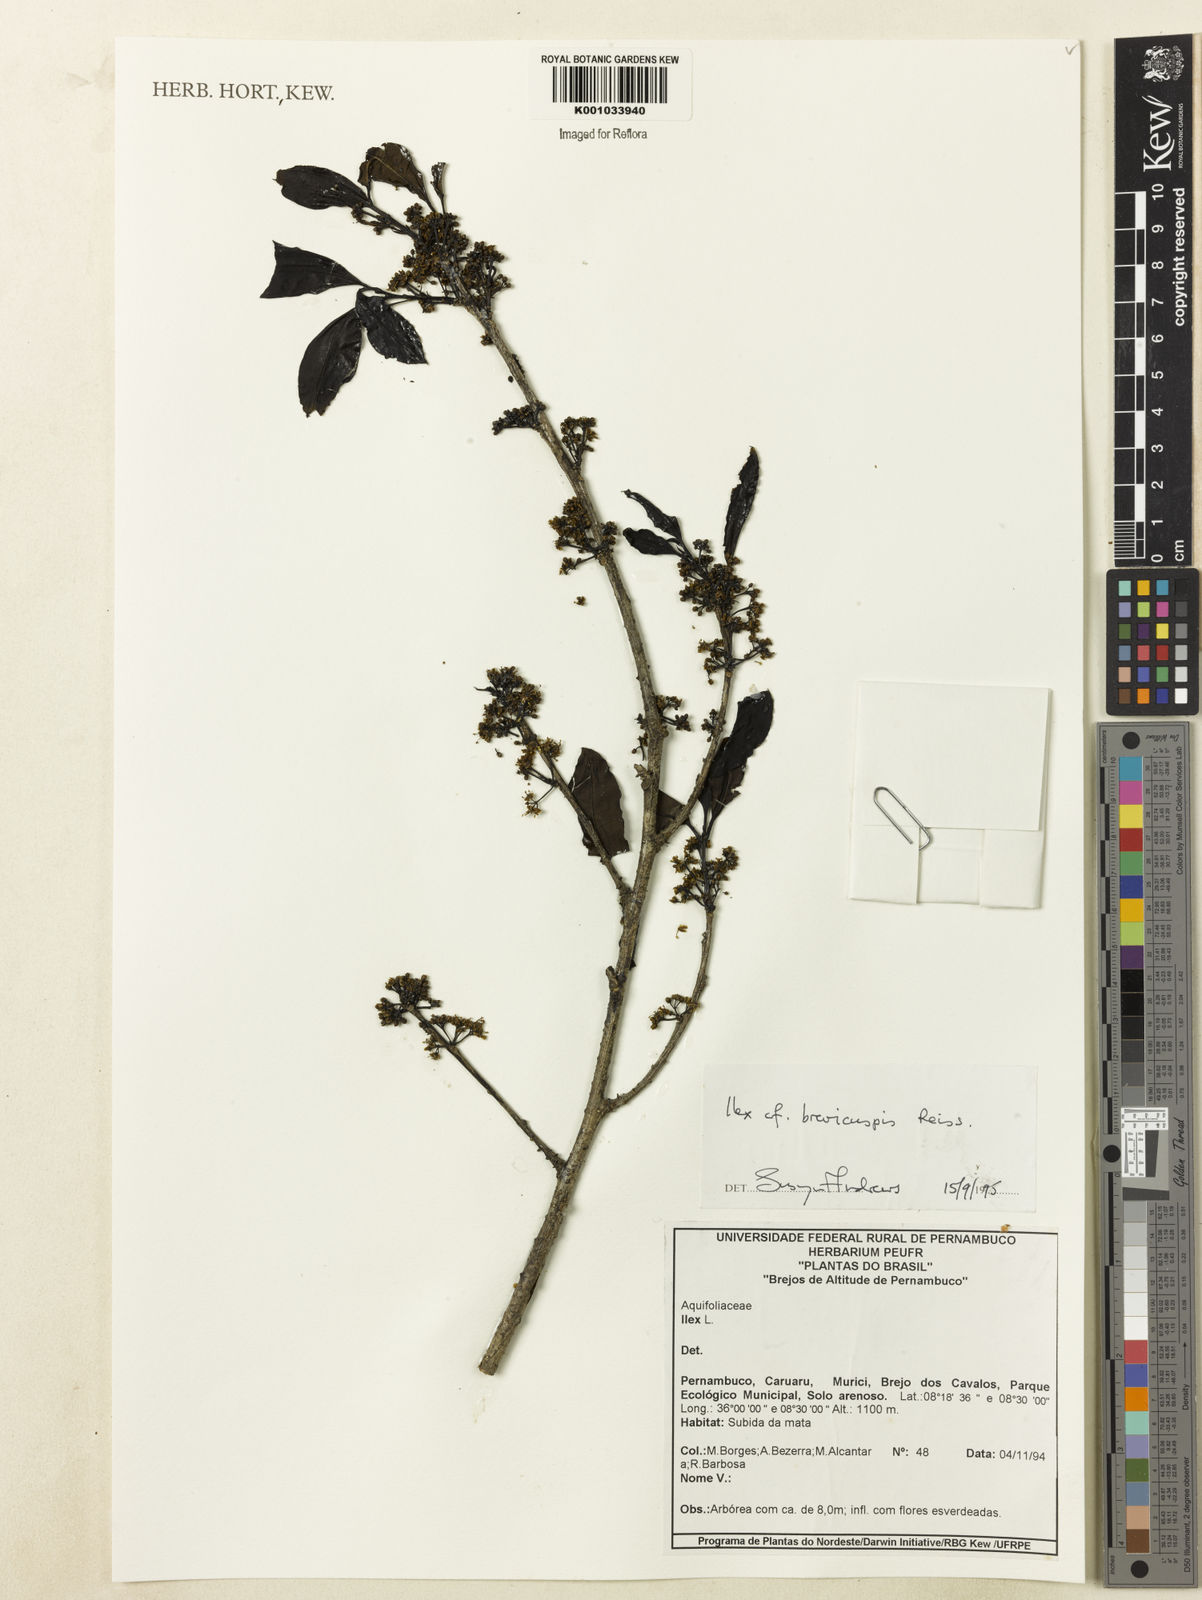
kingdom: Plantae
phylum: Tracheophyta
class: Magnoliopsida
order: Aquifoliales
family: Aquifoliaceae
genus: Ilex
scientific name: Ilex brevicuspis
